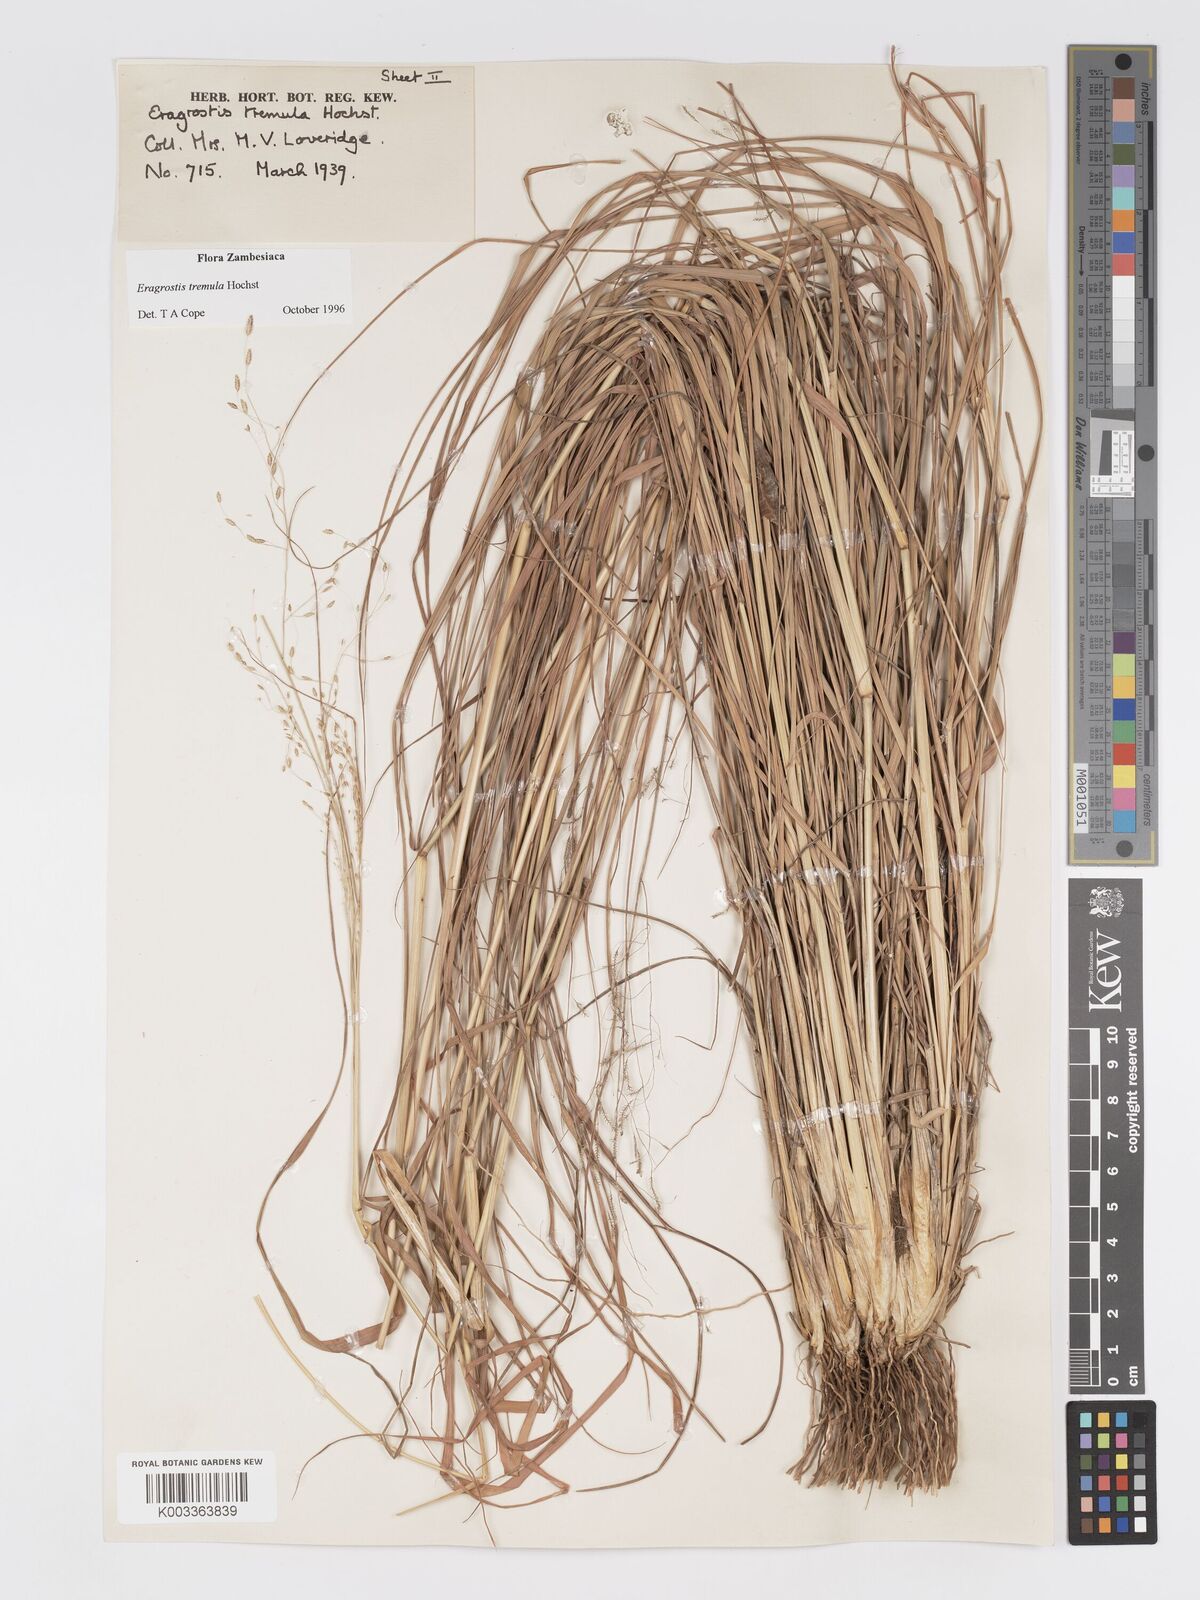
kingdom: Plantae
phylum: Tracheophyta
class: Liliopsida
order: Poales
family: Poaceae
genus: Eragrostis
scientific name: Eragrostis tremula
